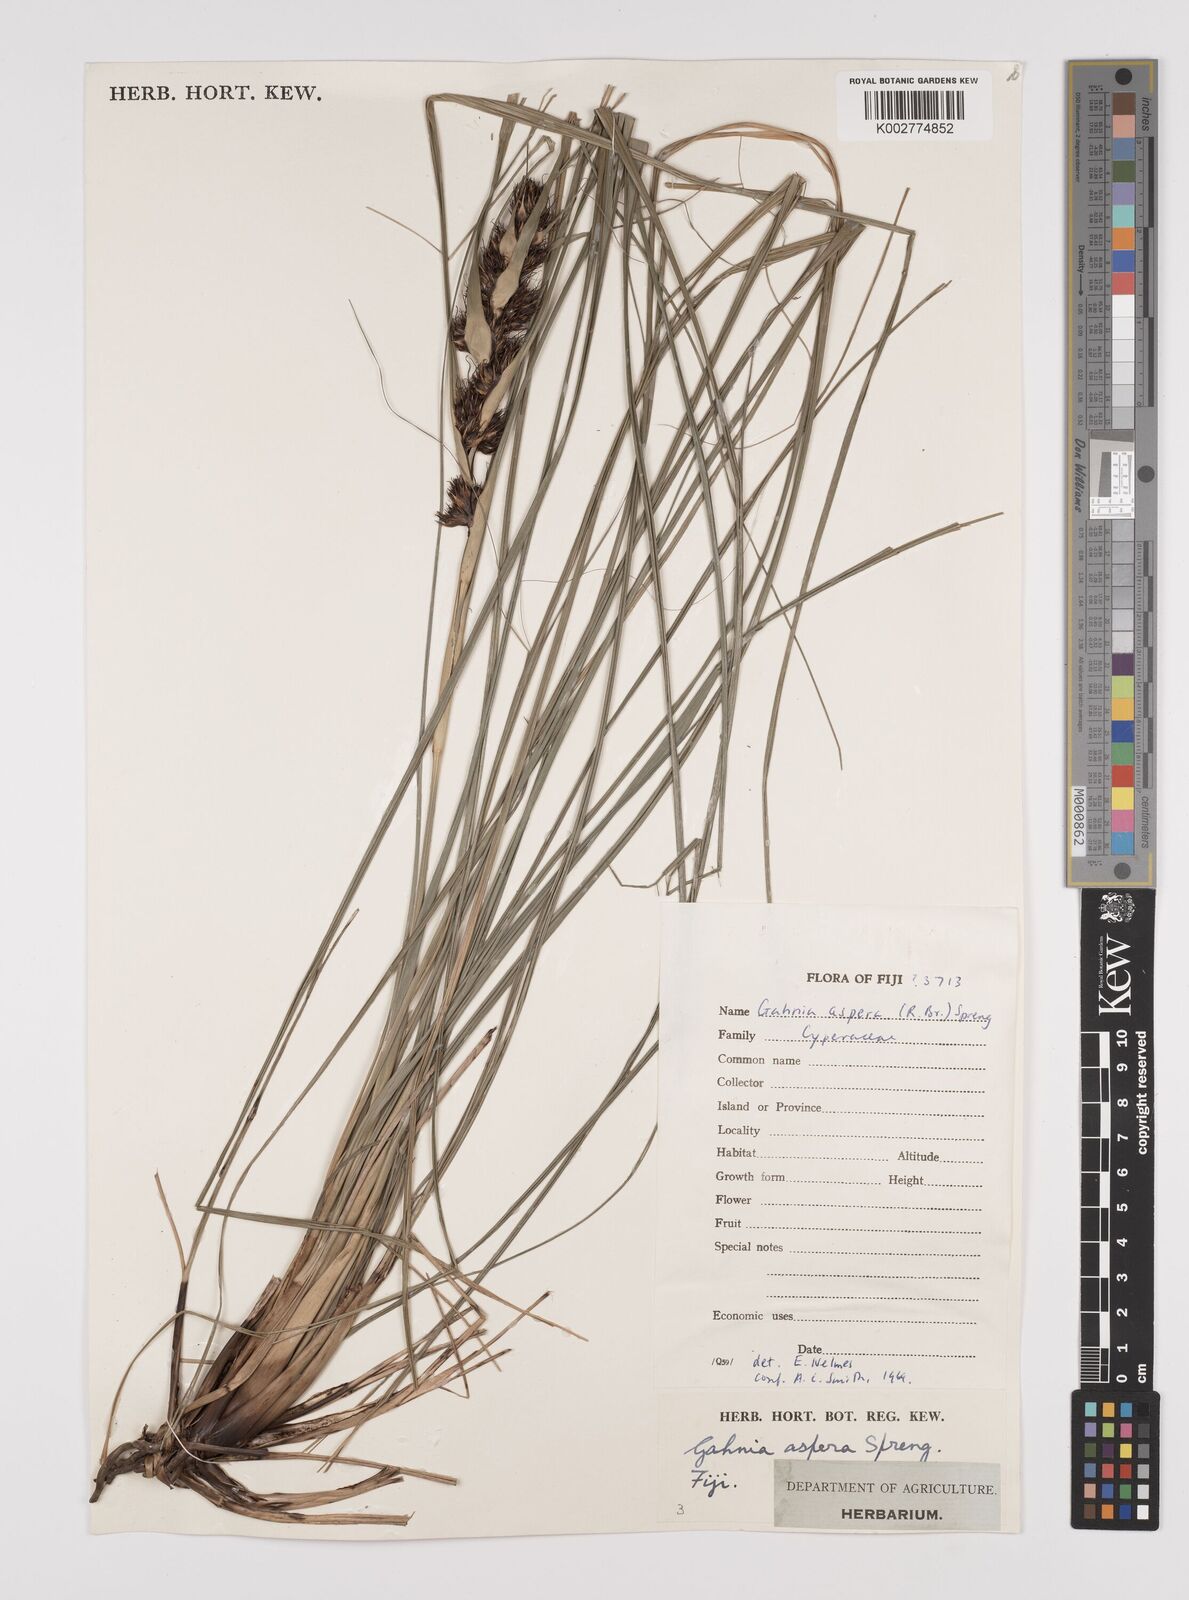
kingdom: Plantae
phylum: Tracheophyta
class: Liliopsida
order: Poales
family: Cyperaceae
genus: Gahnia
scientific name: Gahnia aspera
